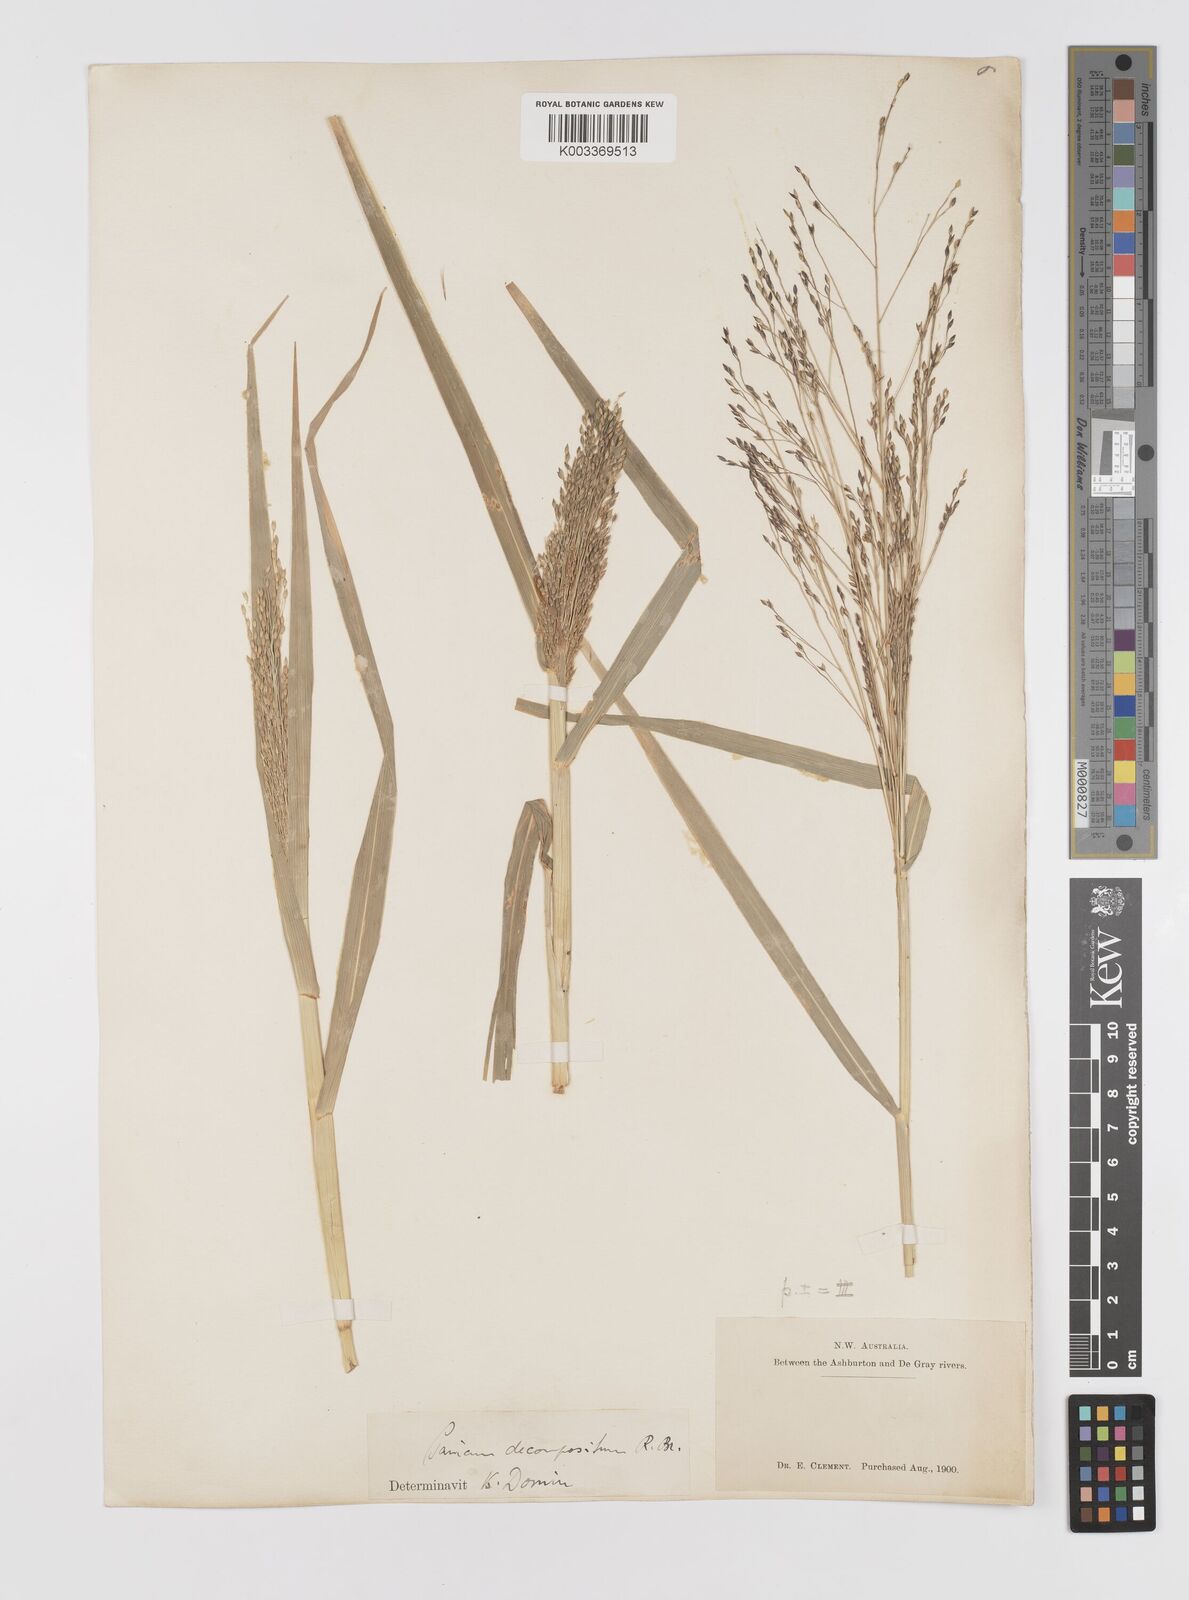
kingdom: Plantae
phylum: Tracheophyta
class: Liliopsida
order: Poales
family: Poaceae
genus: Panicum
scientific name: Panicum decompositum
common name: Australian millet
